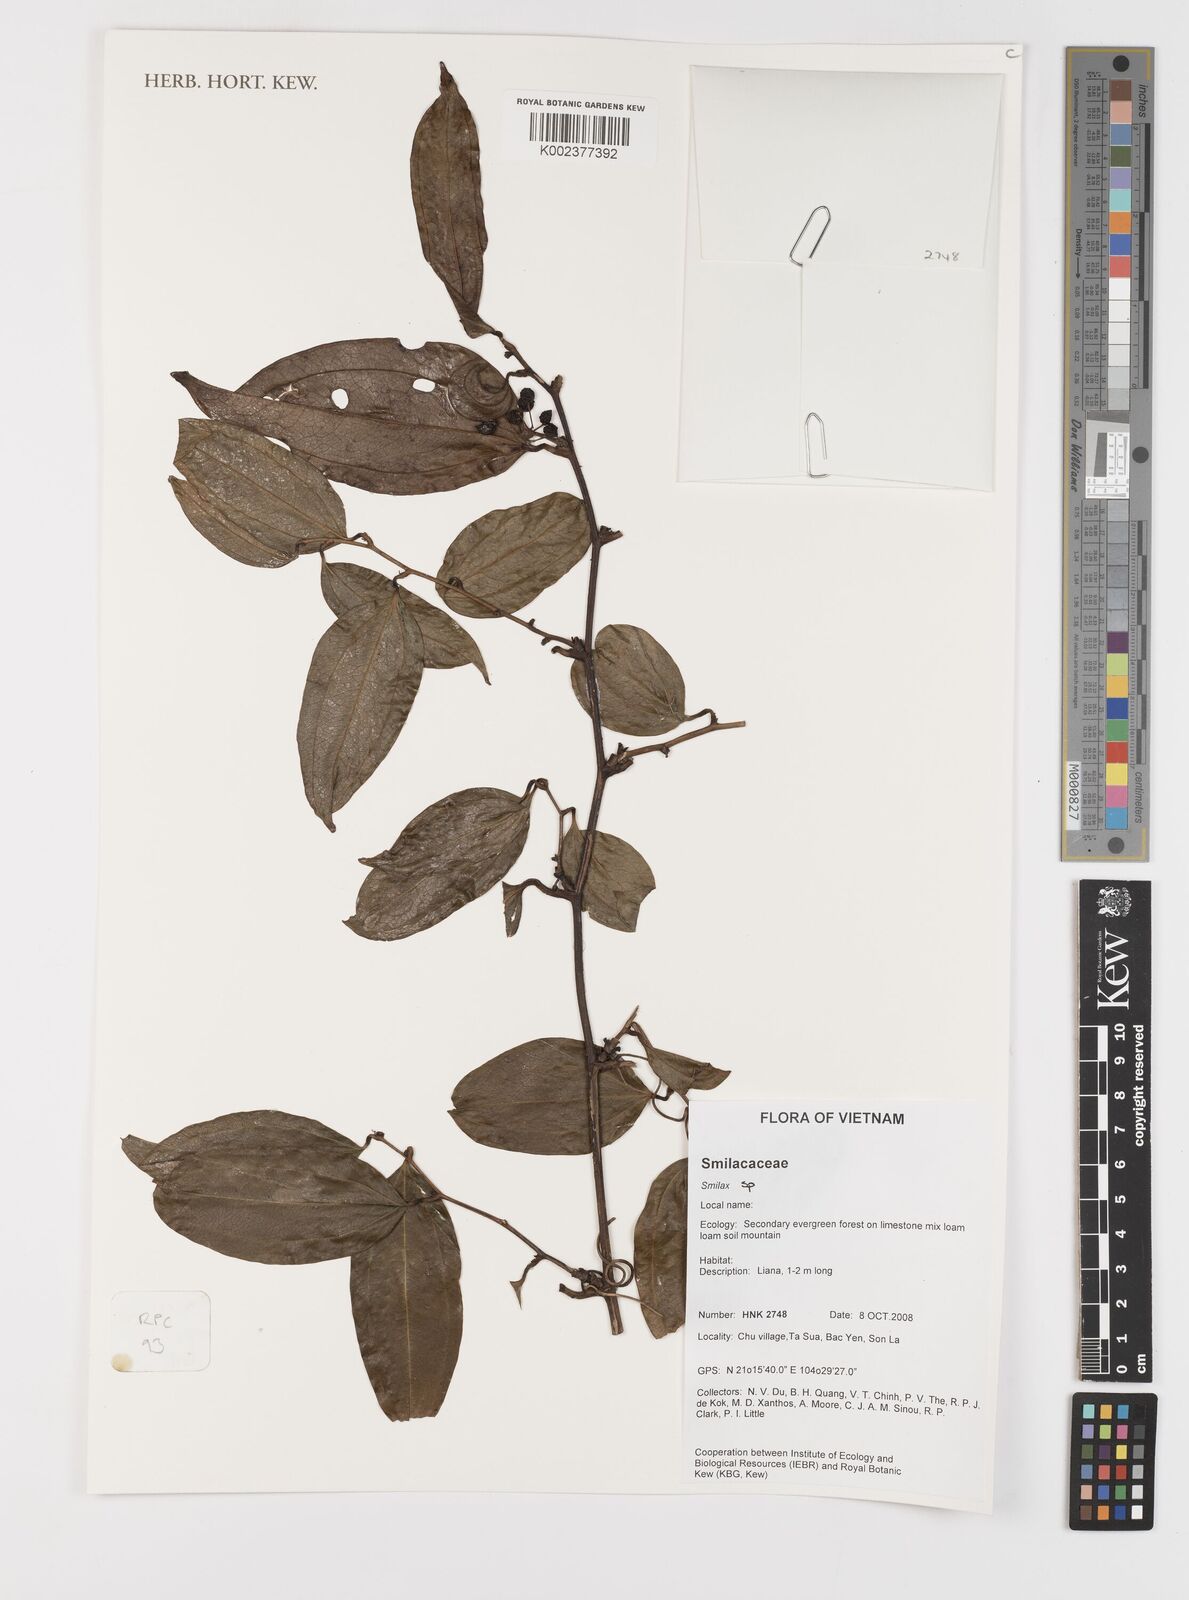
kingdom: Plantae
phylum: Tracheophyta
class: Liliopsida
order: Liliales
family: Smilacaceae
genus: Smilax
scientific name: Smilax
